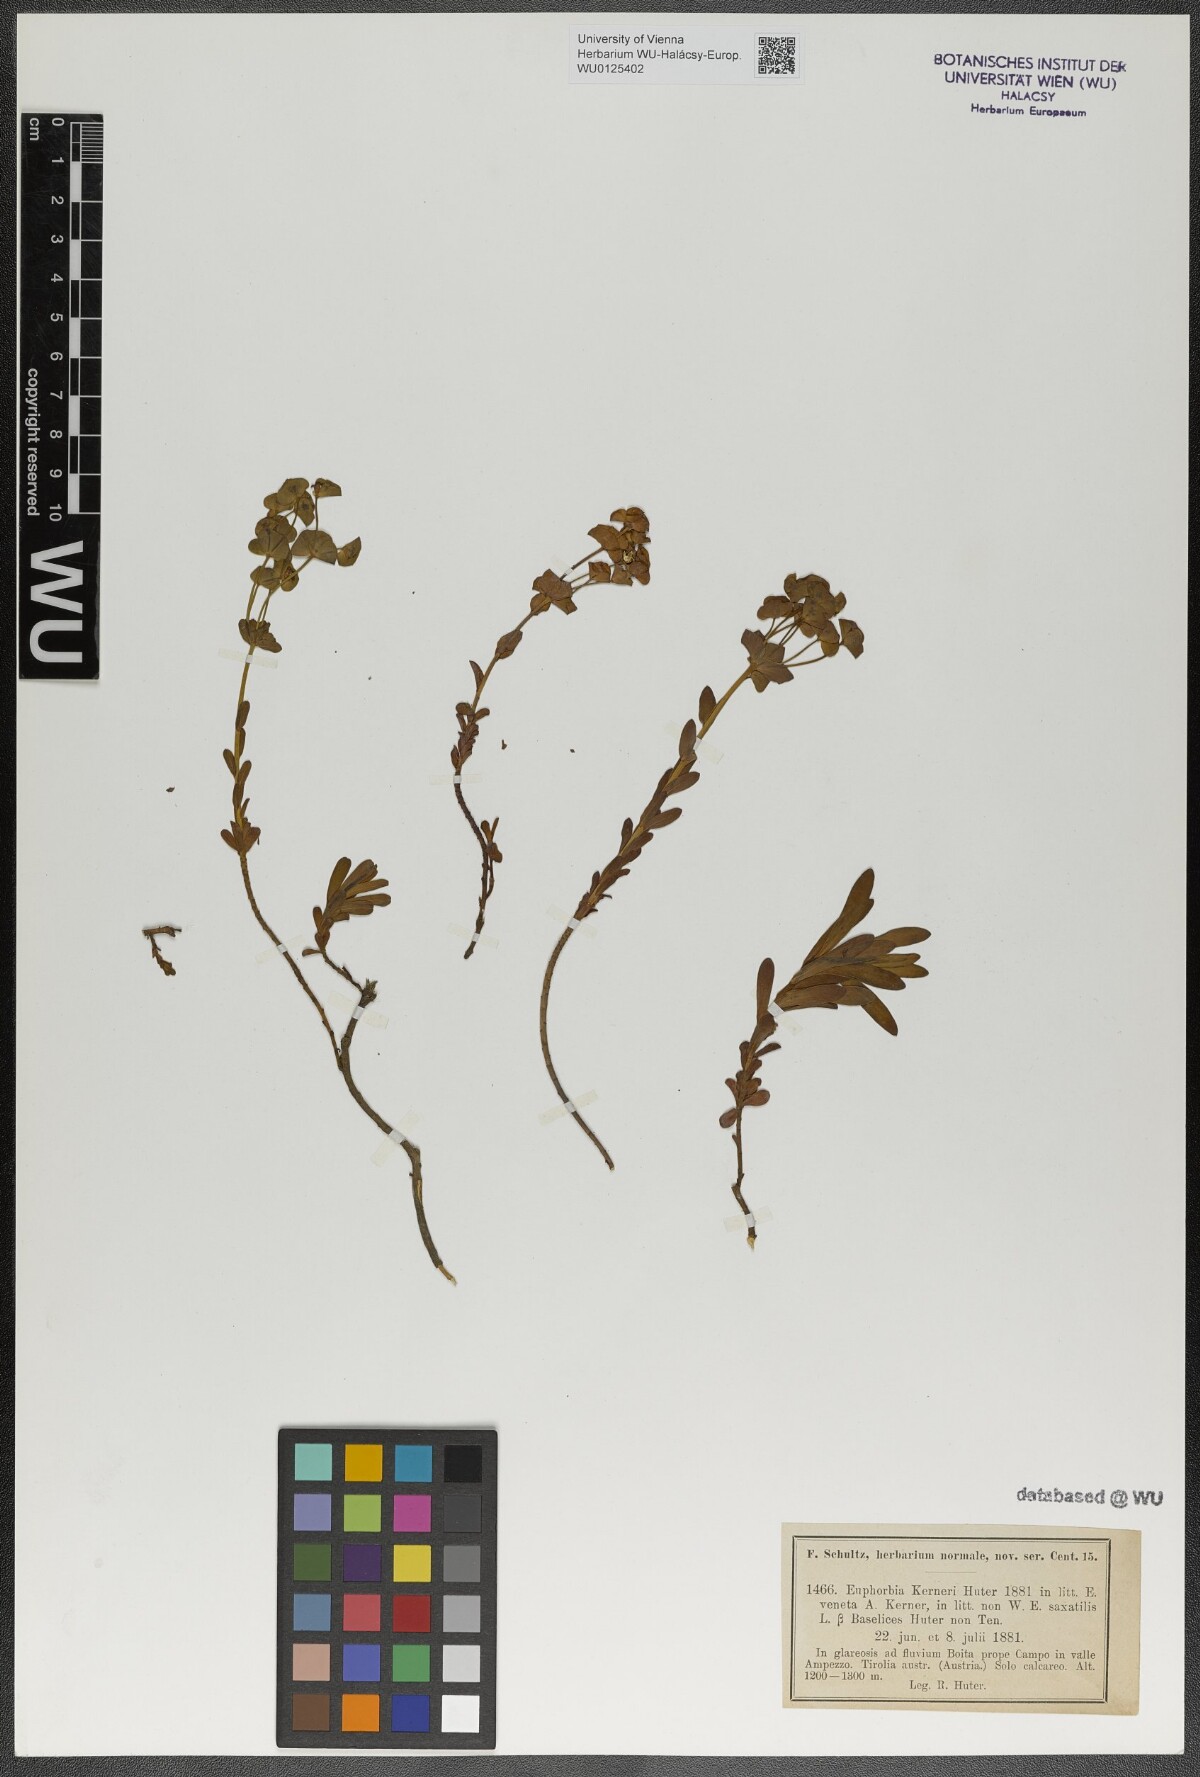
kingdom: Plantae
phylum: Tracheophyta
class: Magnoliopsida
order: Malpighiales
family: Euphorbiaceae
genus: Euphorbia
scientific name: Euphorbia kerneri
